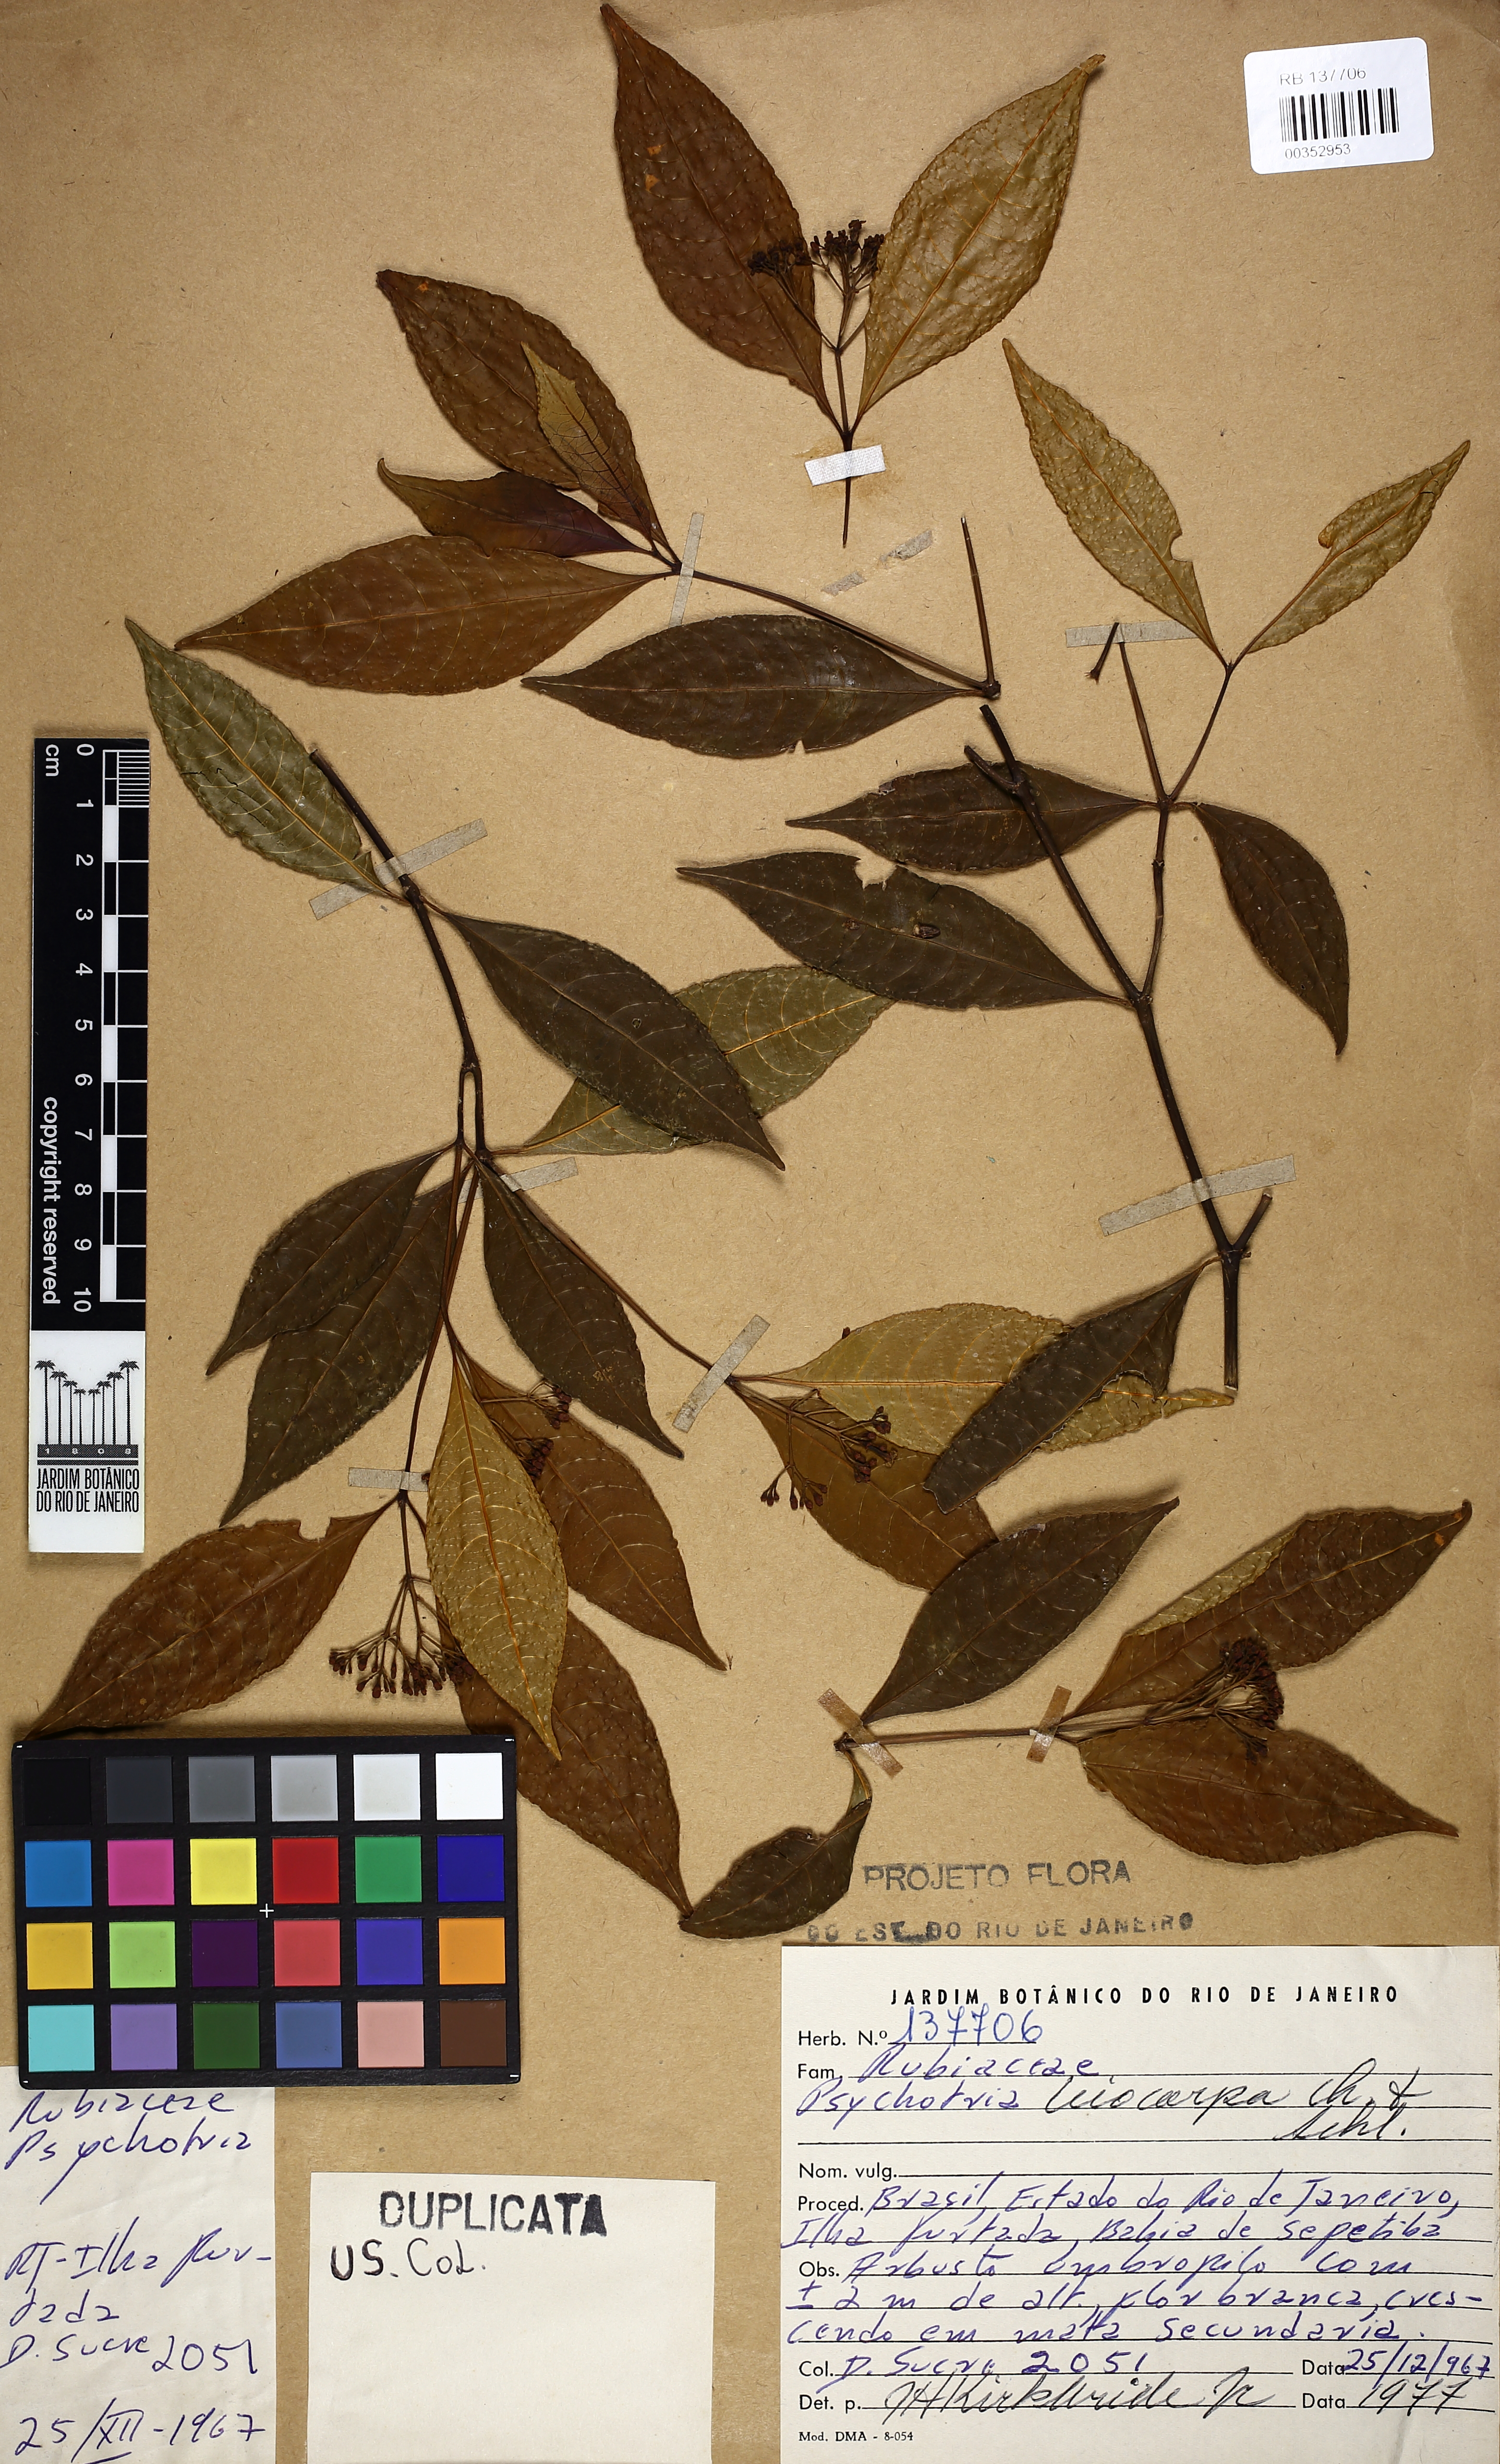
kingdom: Plantae
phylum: Tracheophyta
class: Magnoliopsida
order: Gentianales
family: Rubiaceae
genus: Psychotria
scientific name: Psychotria leiocarpa
